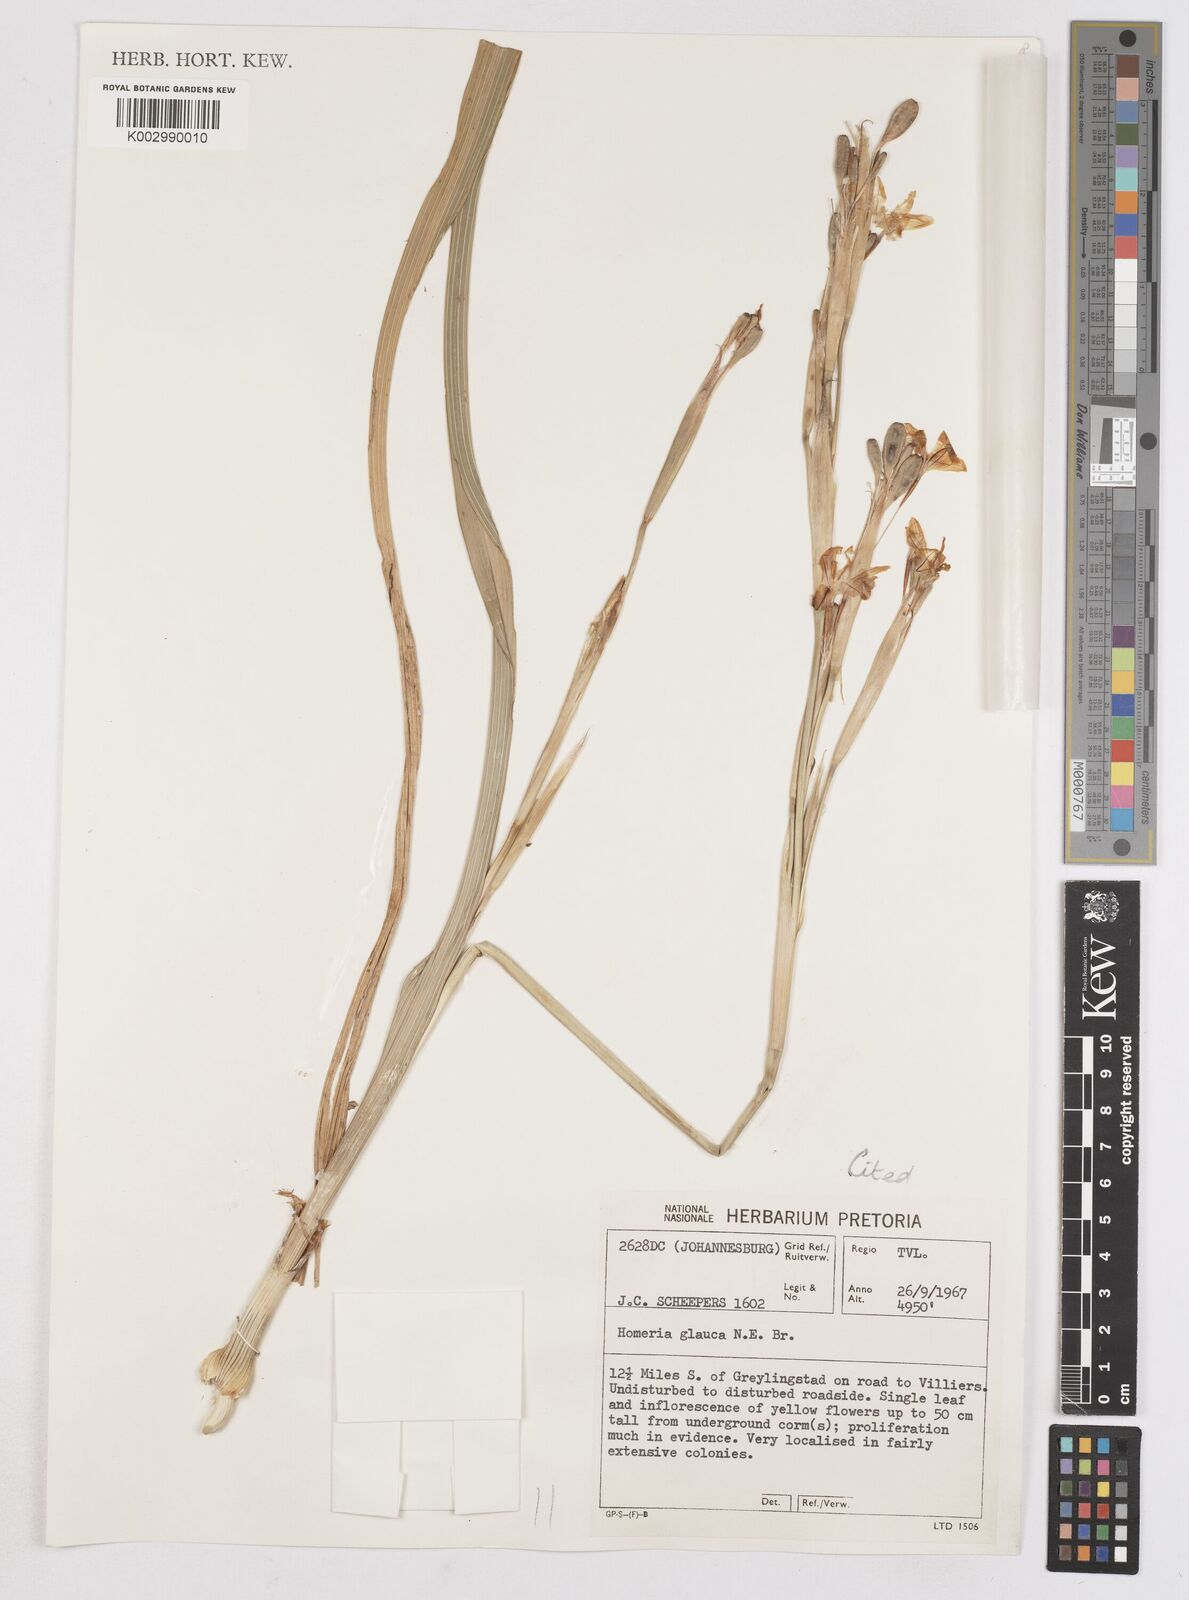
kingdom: Plantae
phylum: Tracheophyta
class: Liliopsida
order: Asparagales
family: Iridaceae
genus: Moraea
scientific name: Moraea pallida
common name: Yellow tulp
